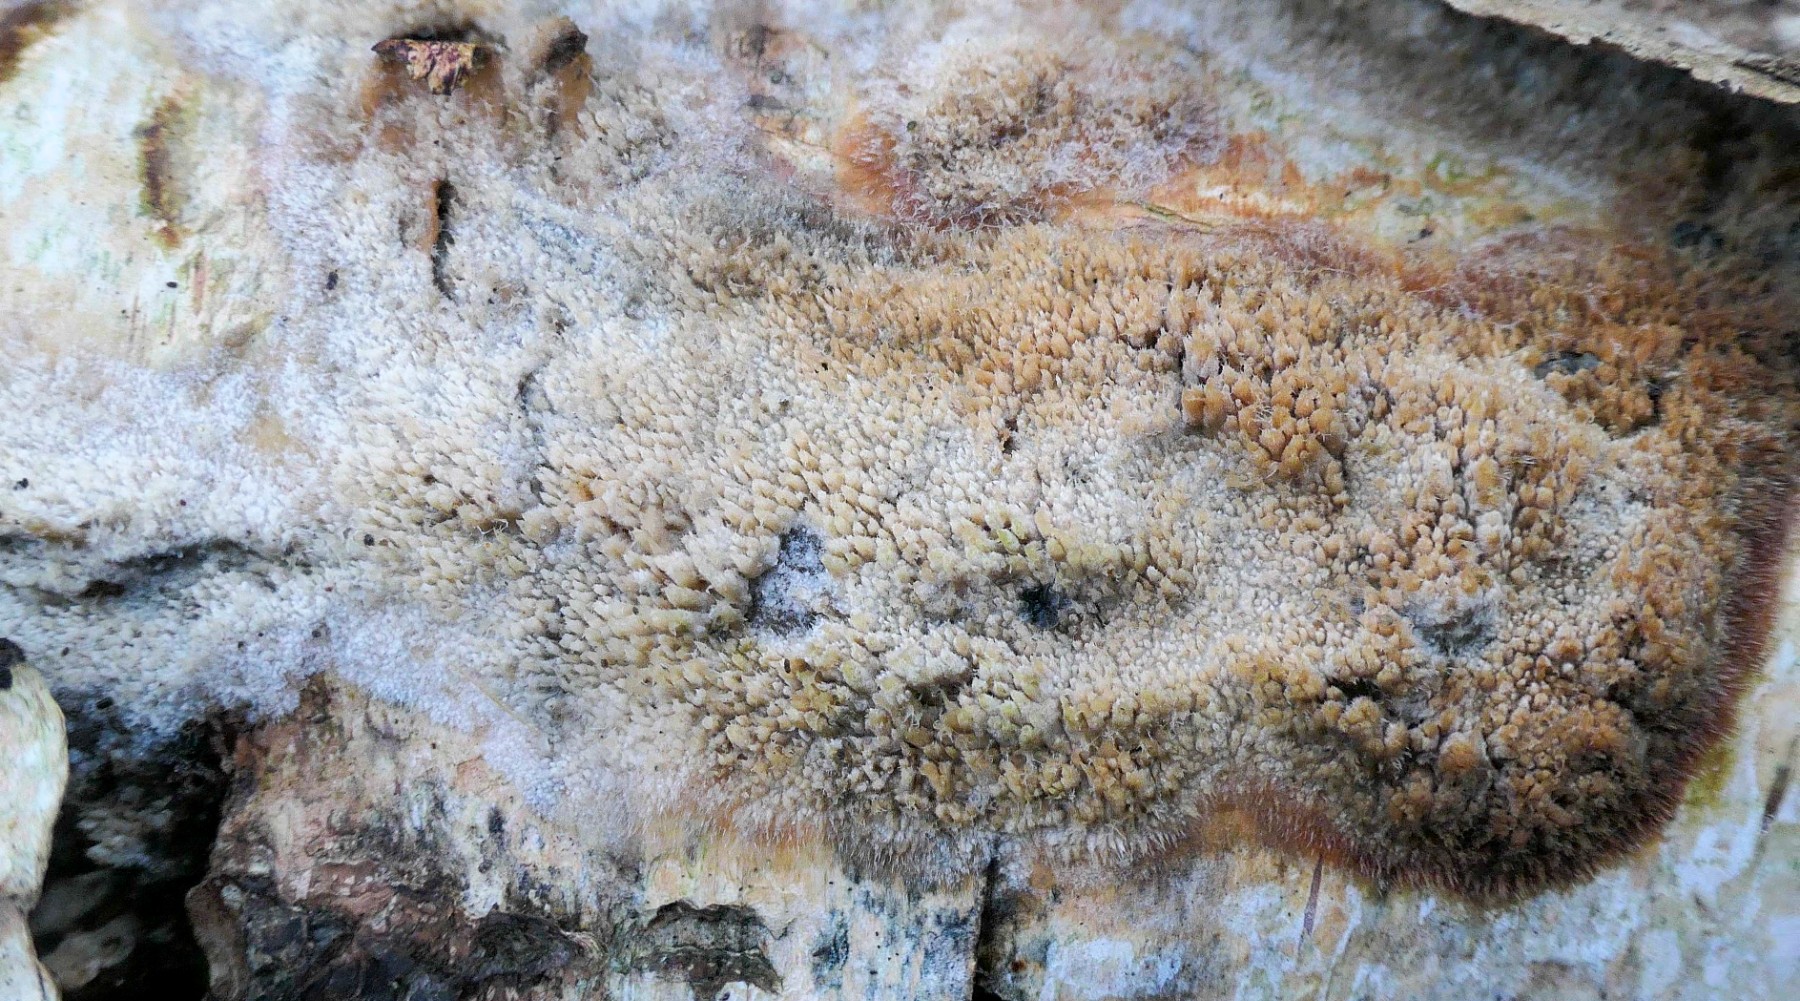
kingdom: Fungi
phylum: Basidiomycota
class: Agaricomycetes
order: Hymenochaetales
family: Hyphodontiaceae
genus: Hyphodontia
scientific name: Hyphodontia barba-jovis
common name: skægget tandsvamp
